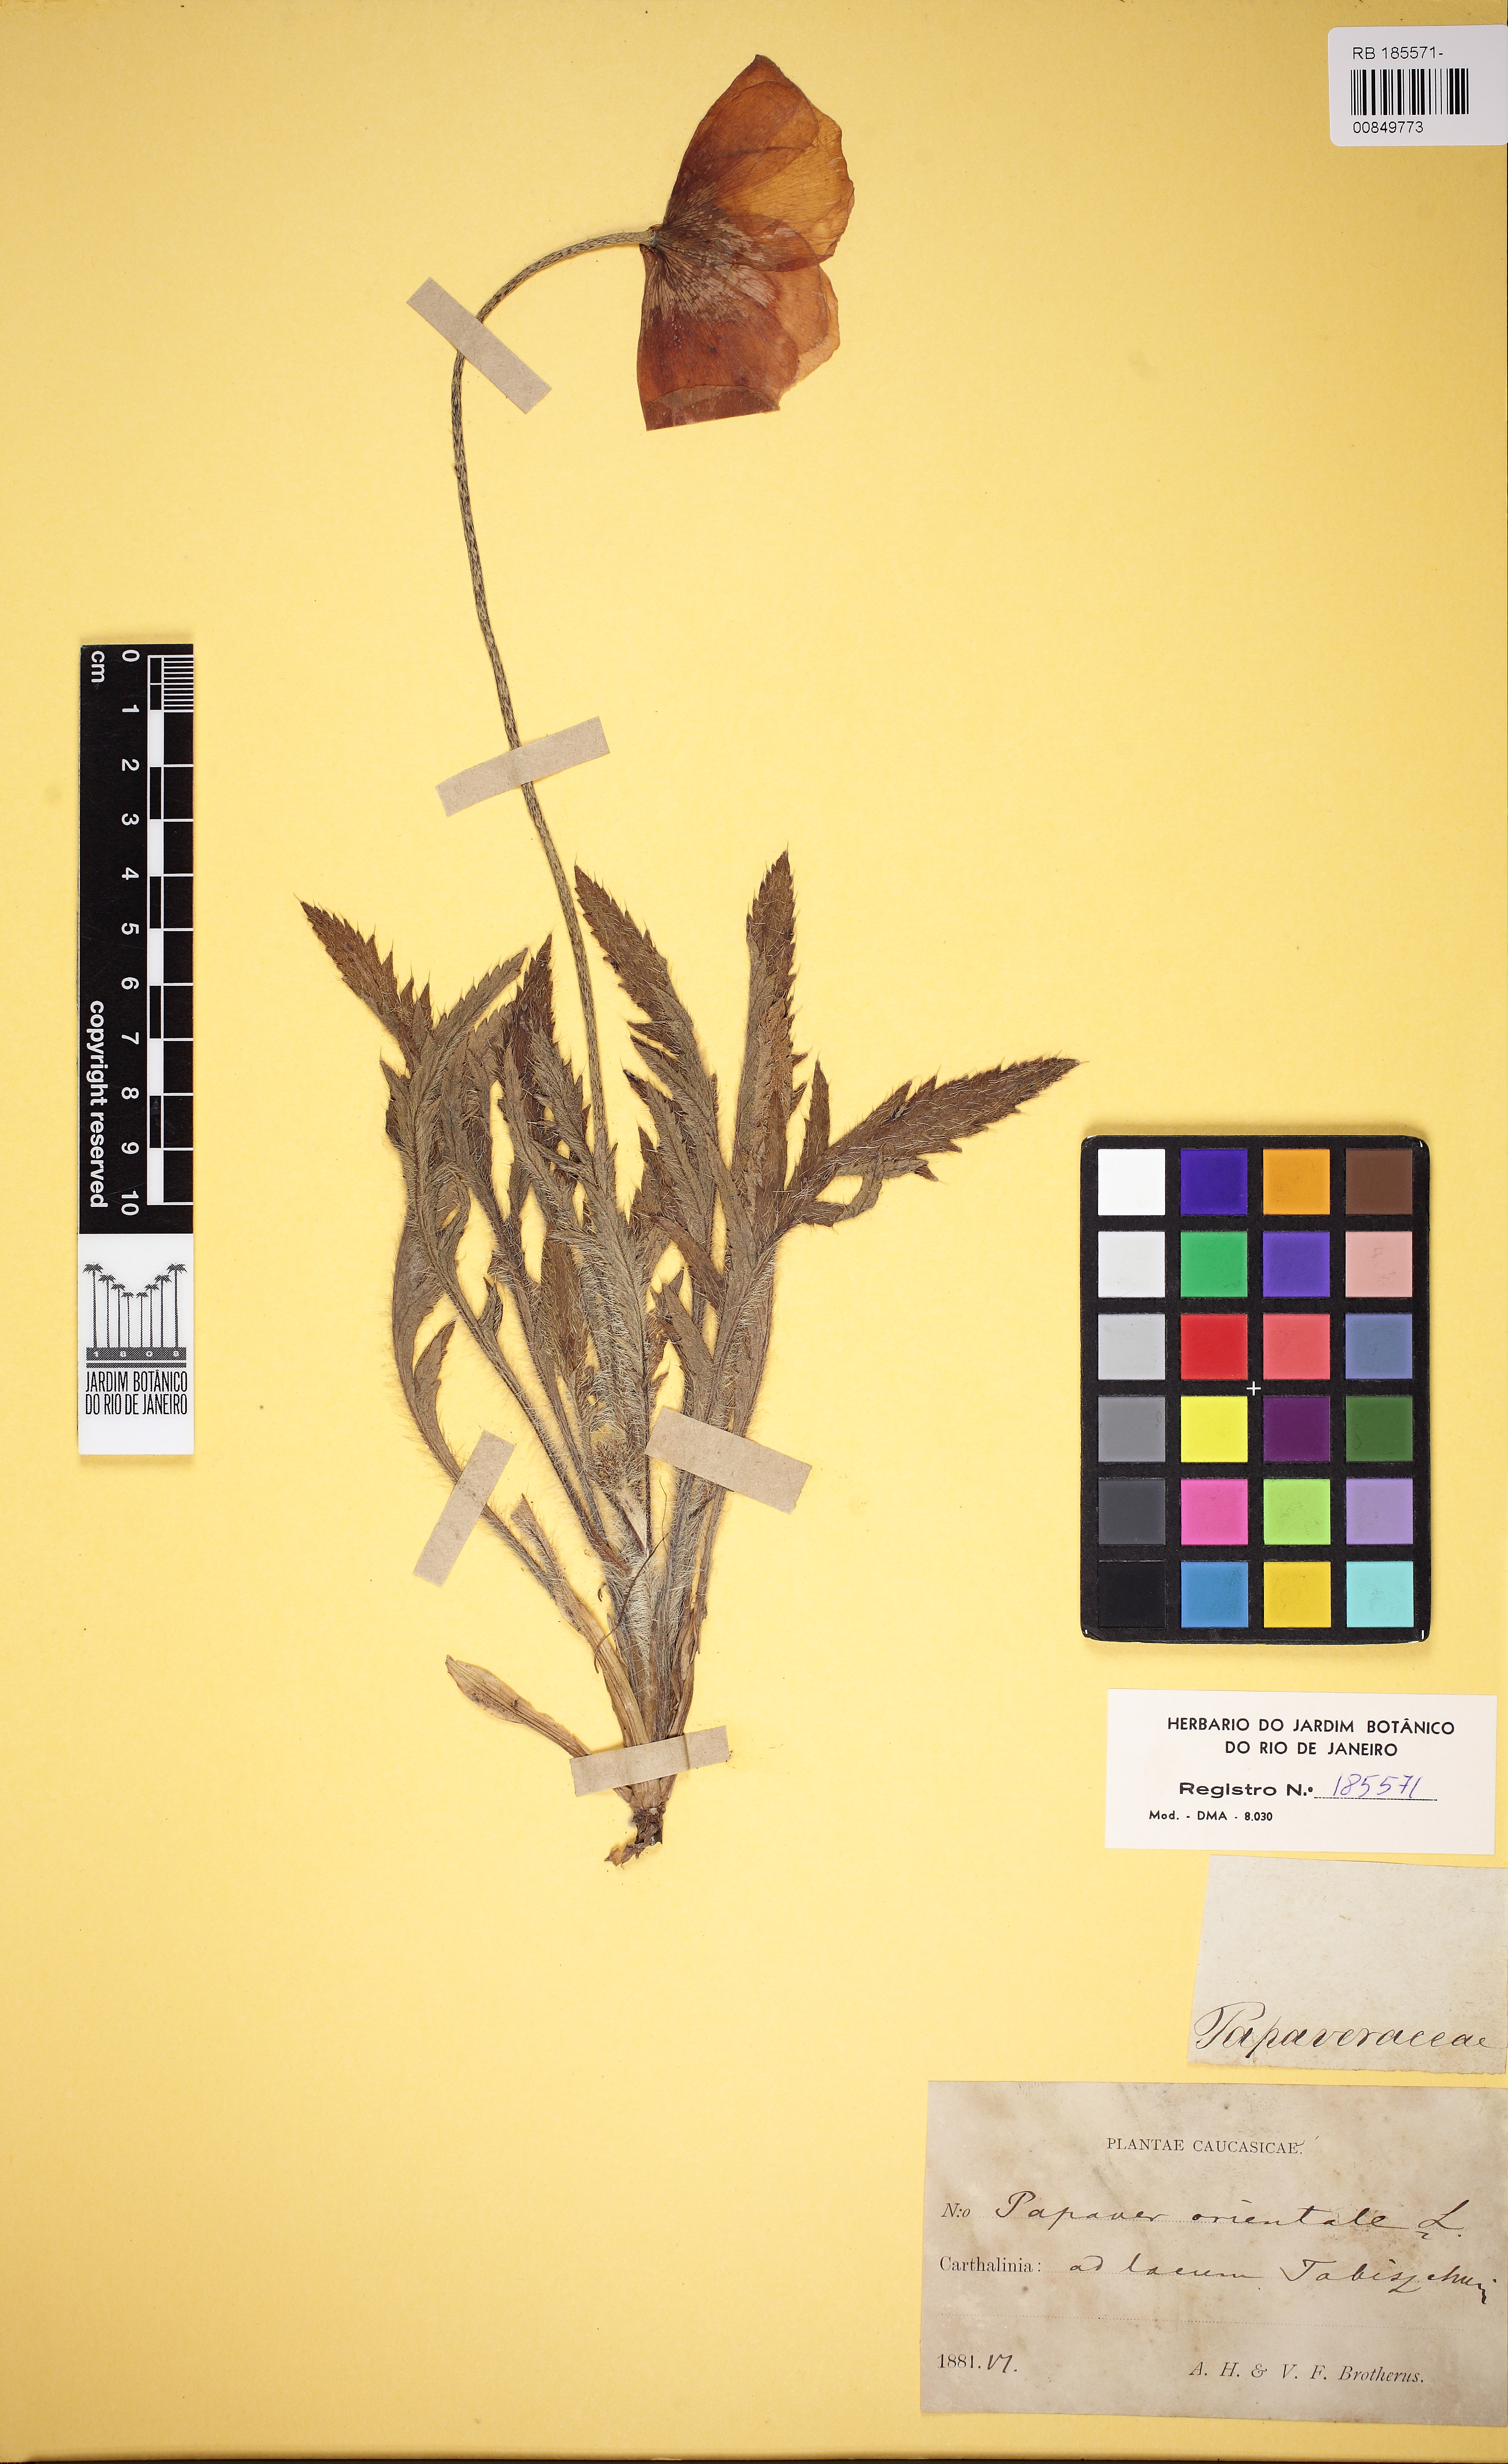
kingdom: Plantae
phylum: Tracheophyta
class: Magnoliopsida
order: Ranunculales
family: Papaveraceae
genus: Papaver
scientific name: Papaver orientale
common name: Oriental poppy
